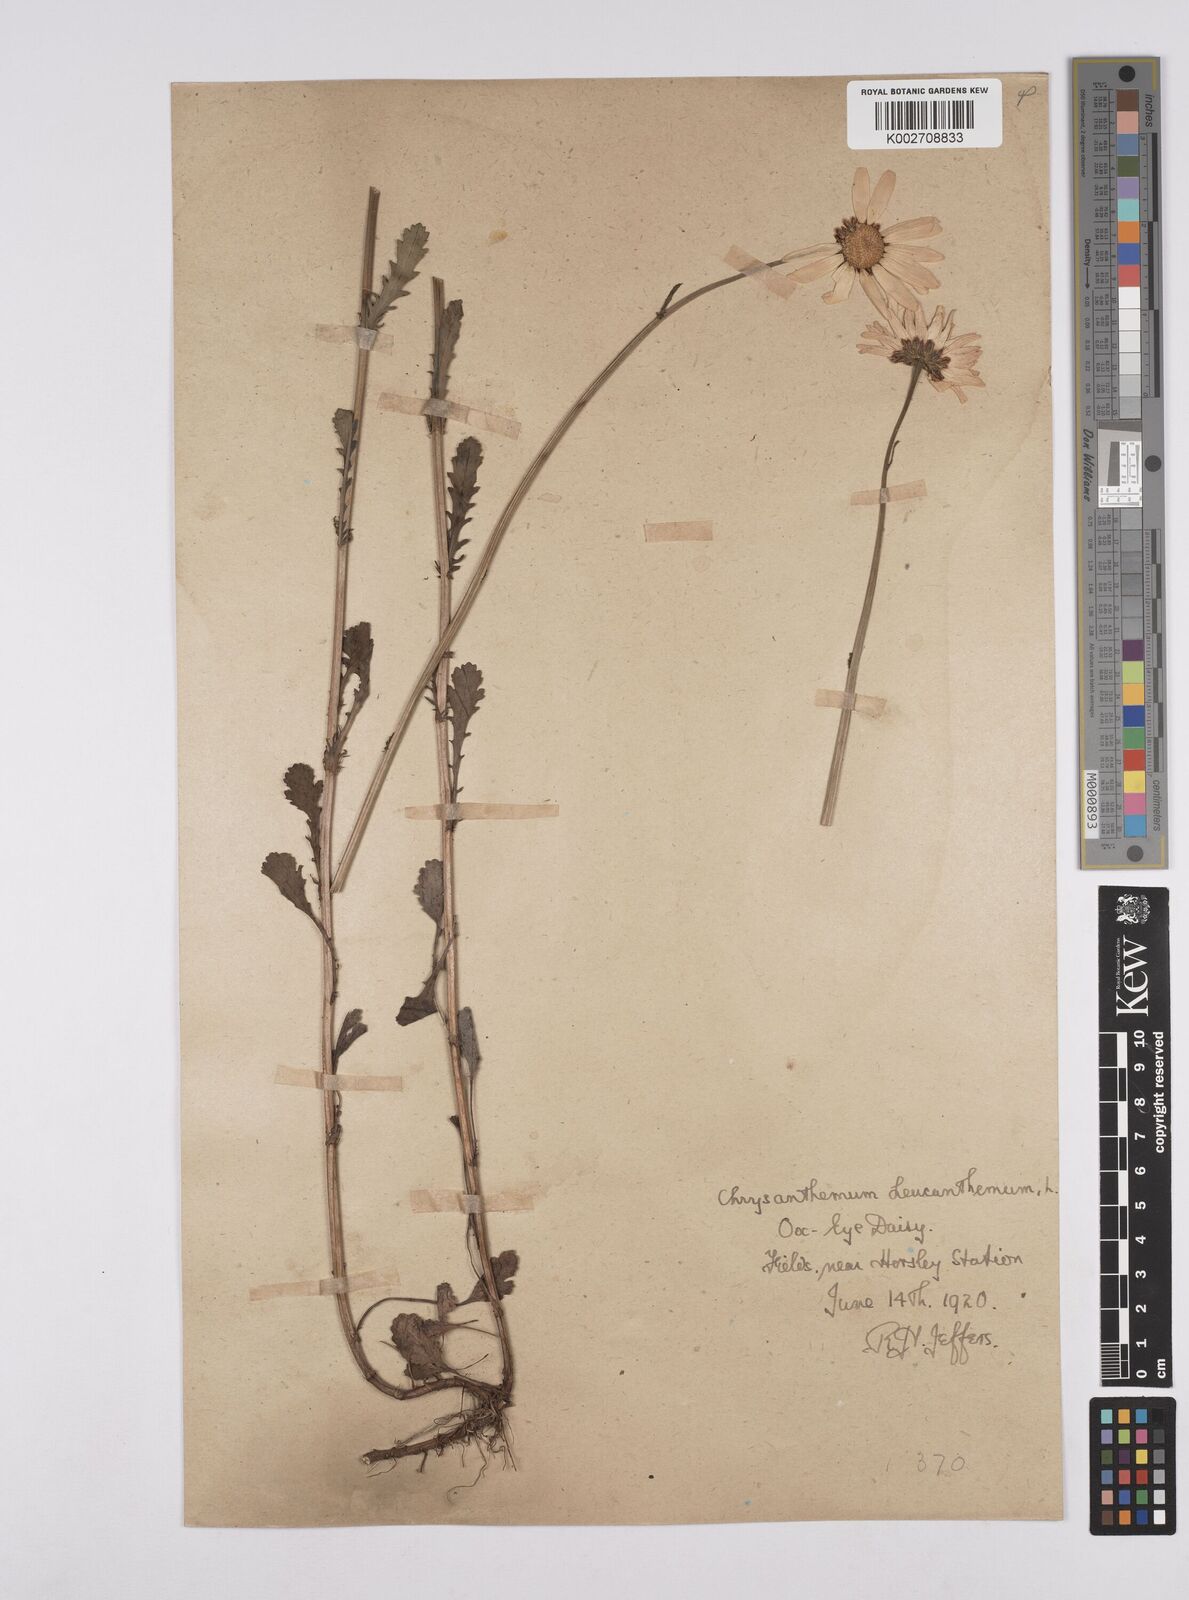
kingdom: Plantae
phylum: Tracheophyta
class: Magnoliopsida
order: Asterales
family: Asteraceae
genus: Leucanthemum
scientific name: Leucanthemum
